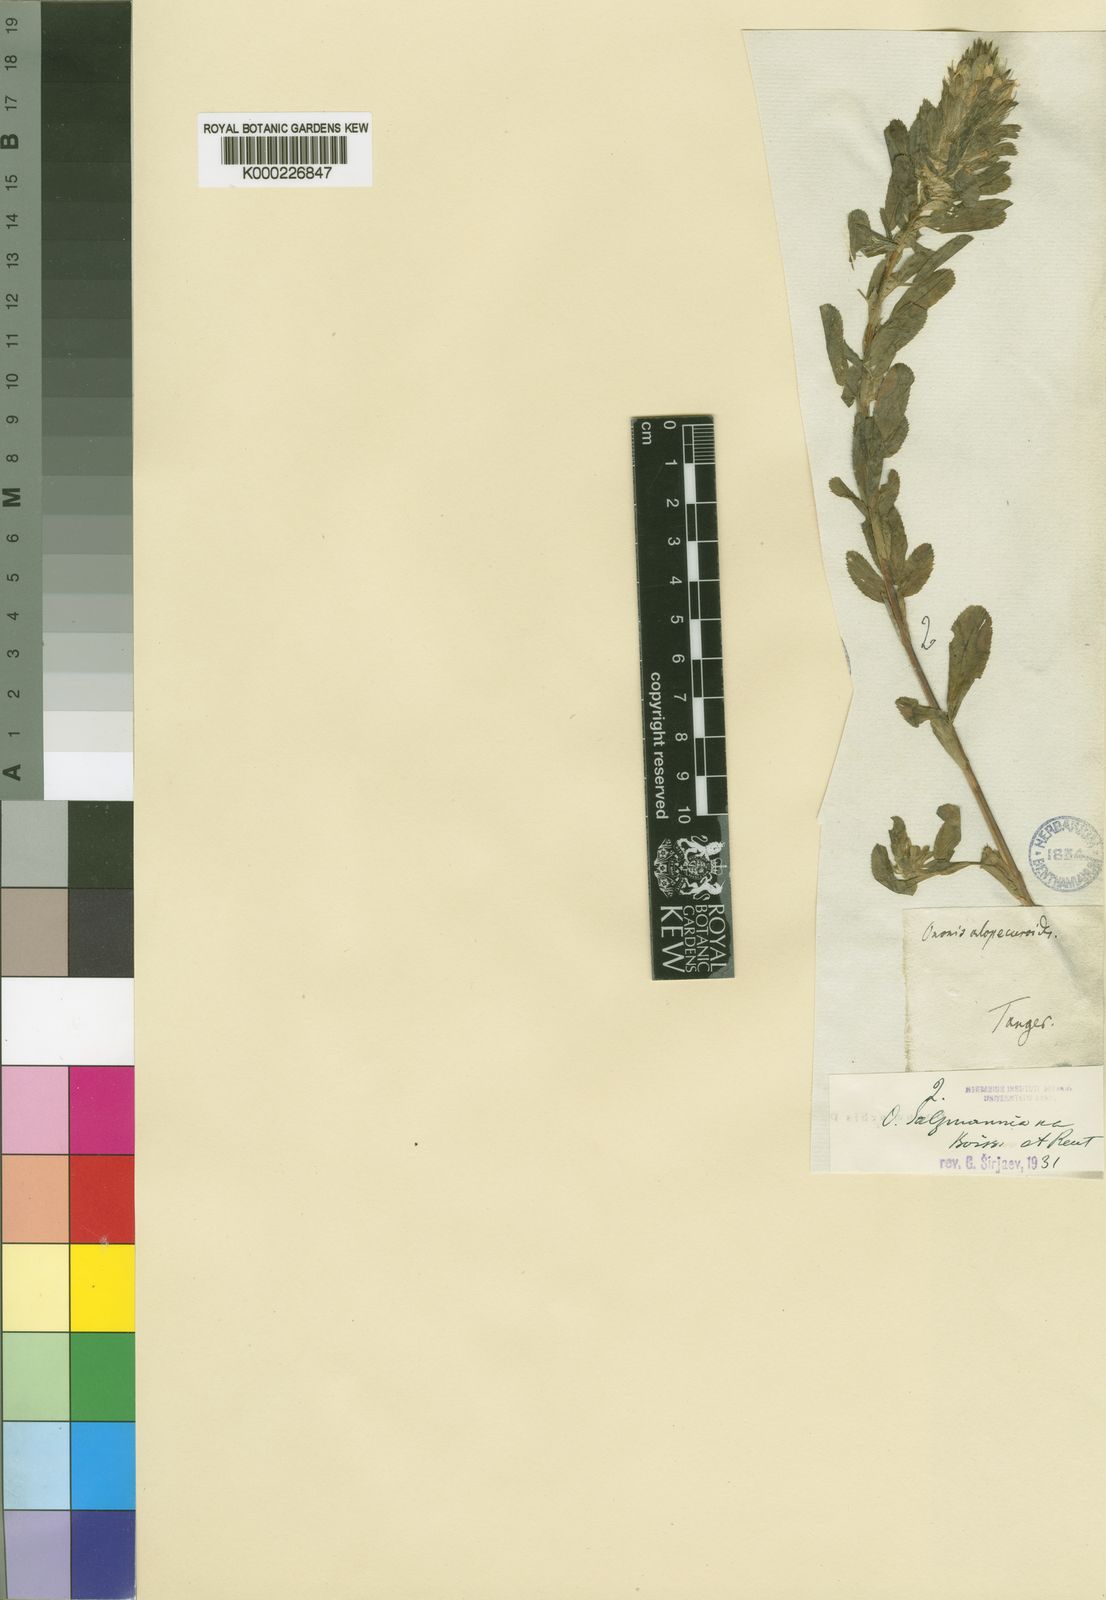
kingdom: Plantae
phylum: Tracheophyta
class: Magnoliopsida
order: Fabales
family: Fabaceae
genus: Ononis
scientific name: Ononis alopecuroides
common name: Salzmann's restharrow
